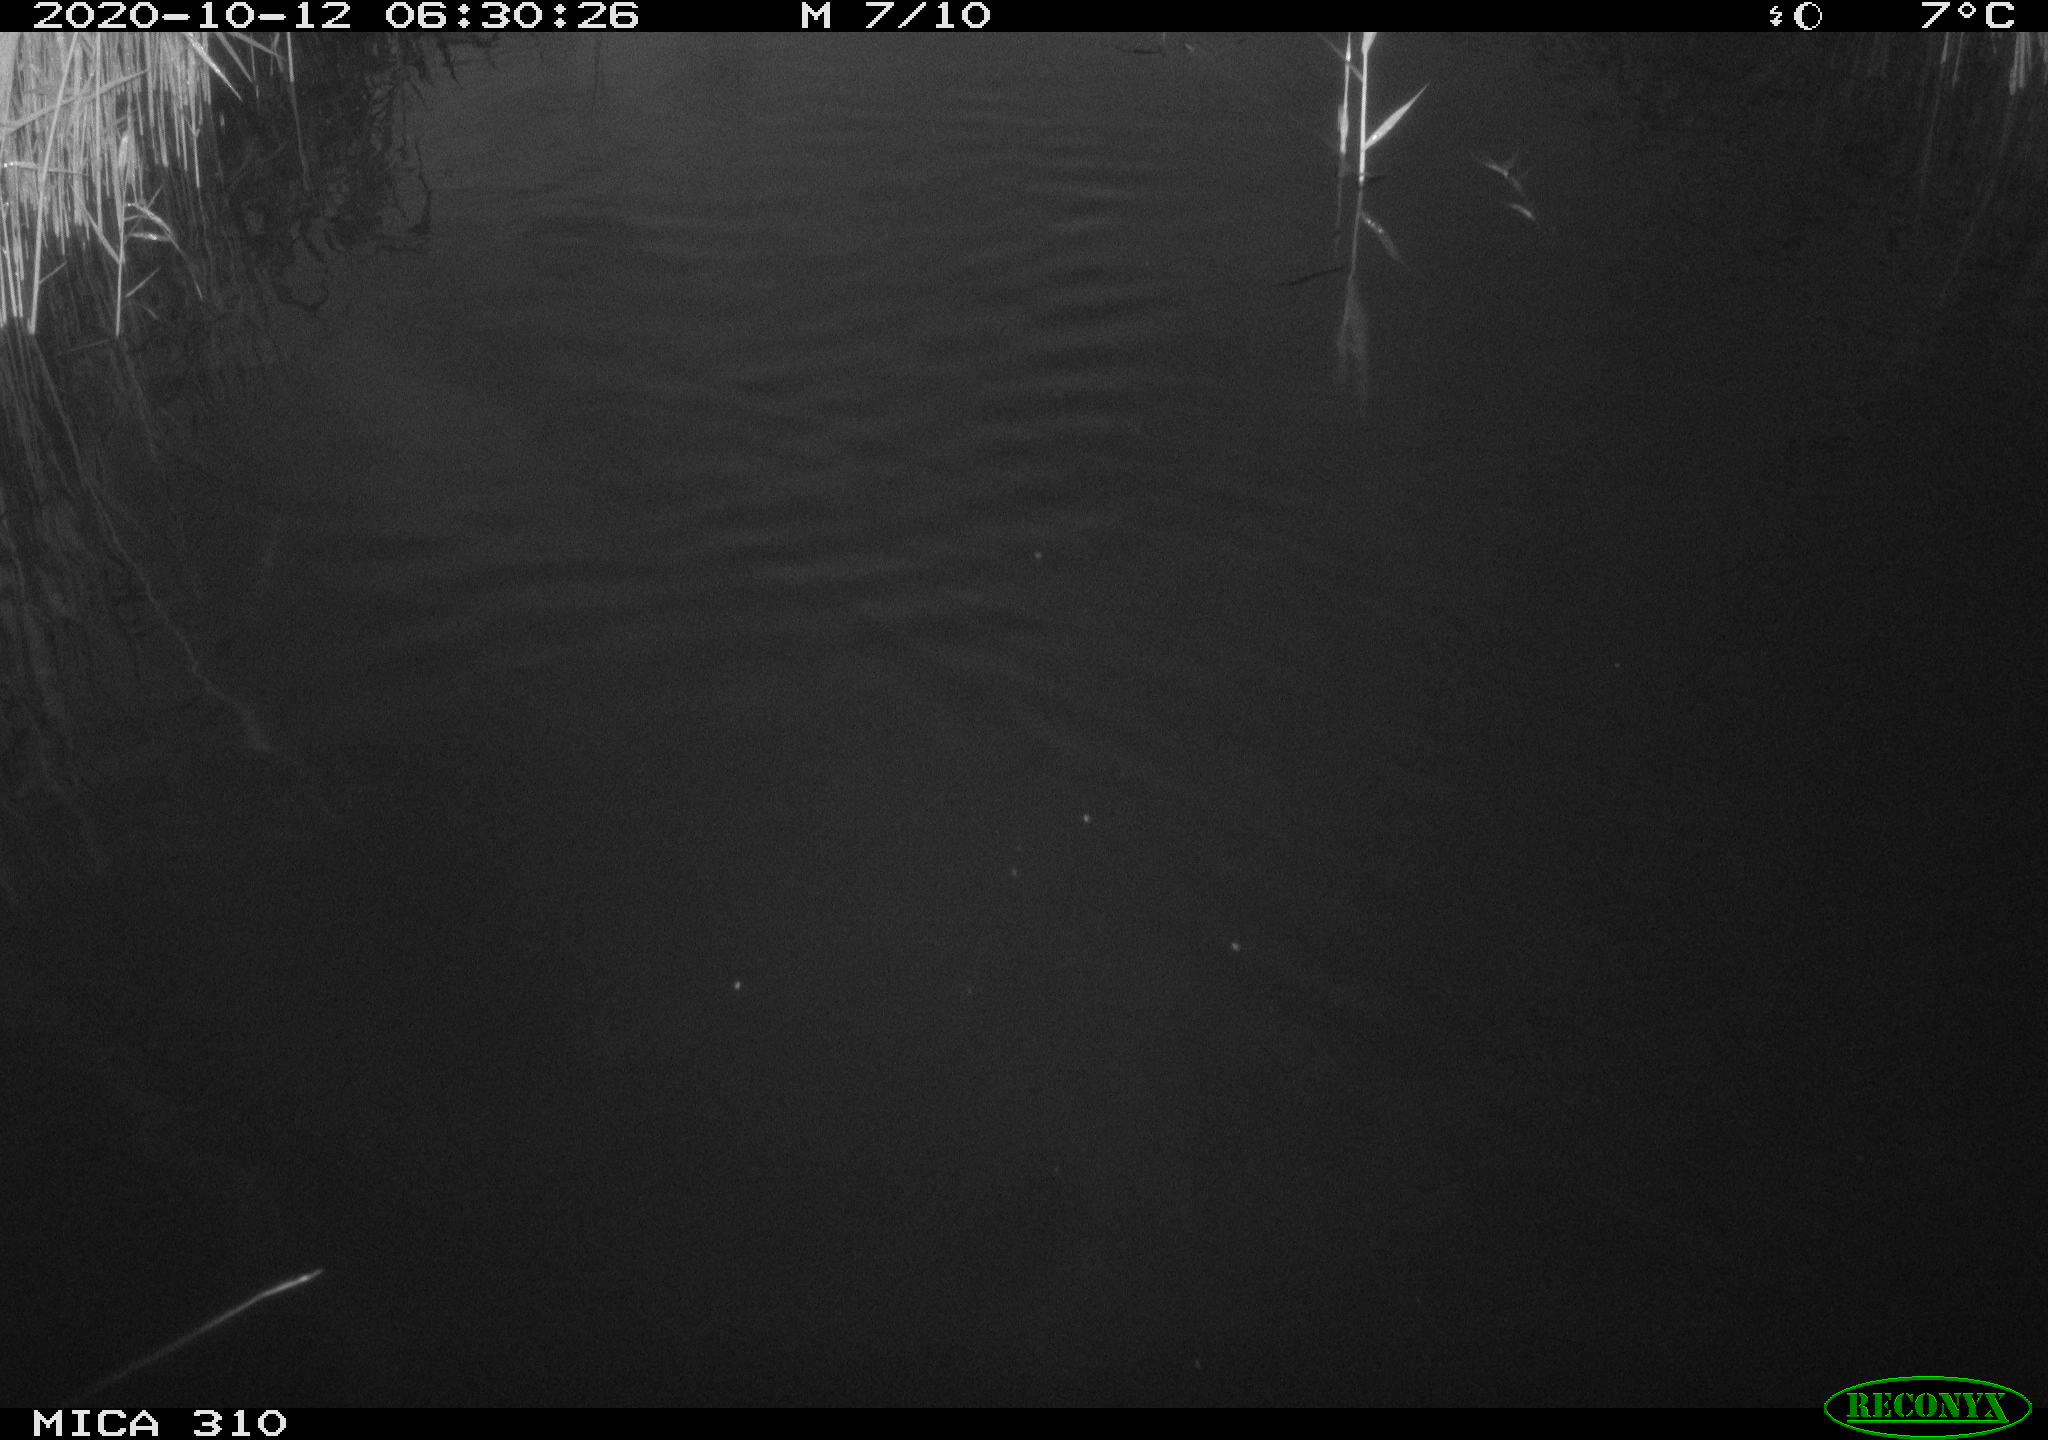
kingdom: Animalia
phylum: Chordata
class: Aves
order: Gruiformes
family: Rallidae
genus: Gallinula
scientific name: Gallinula chloropus
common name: Common moorhen
